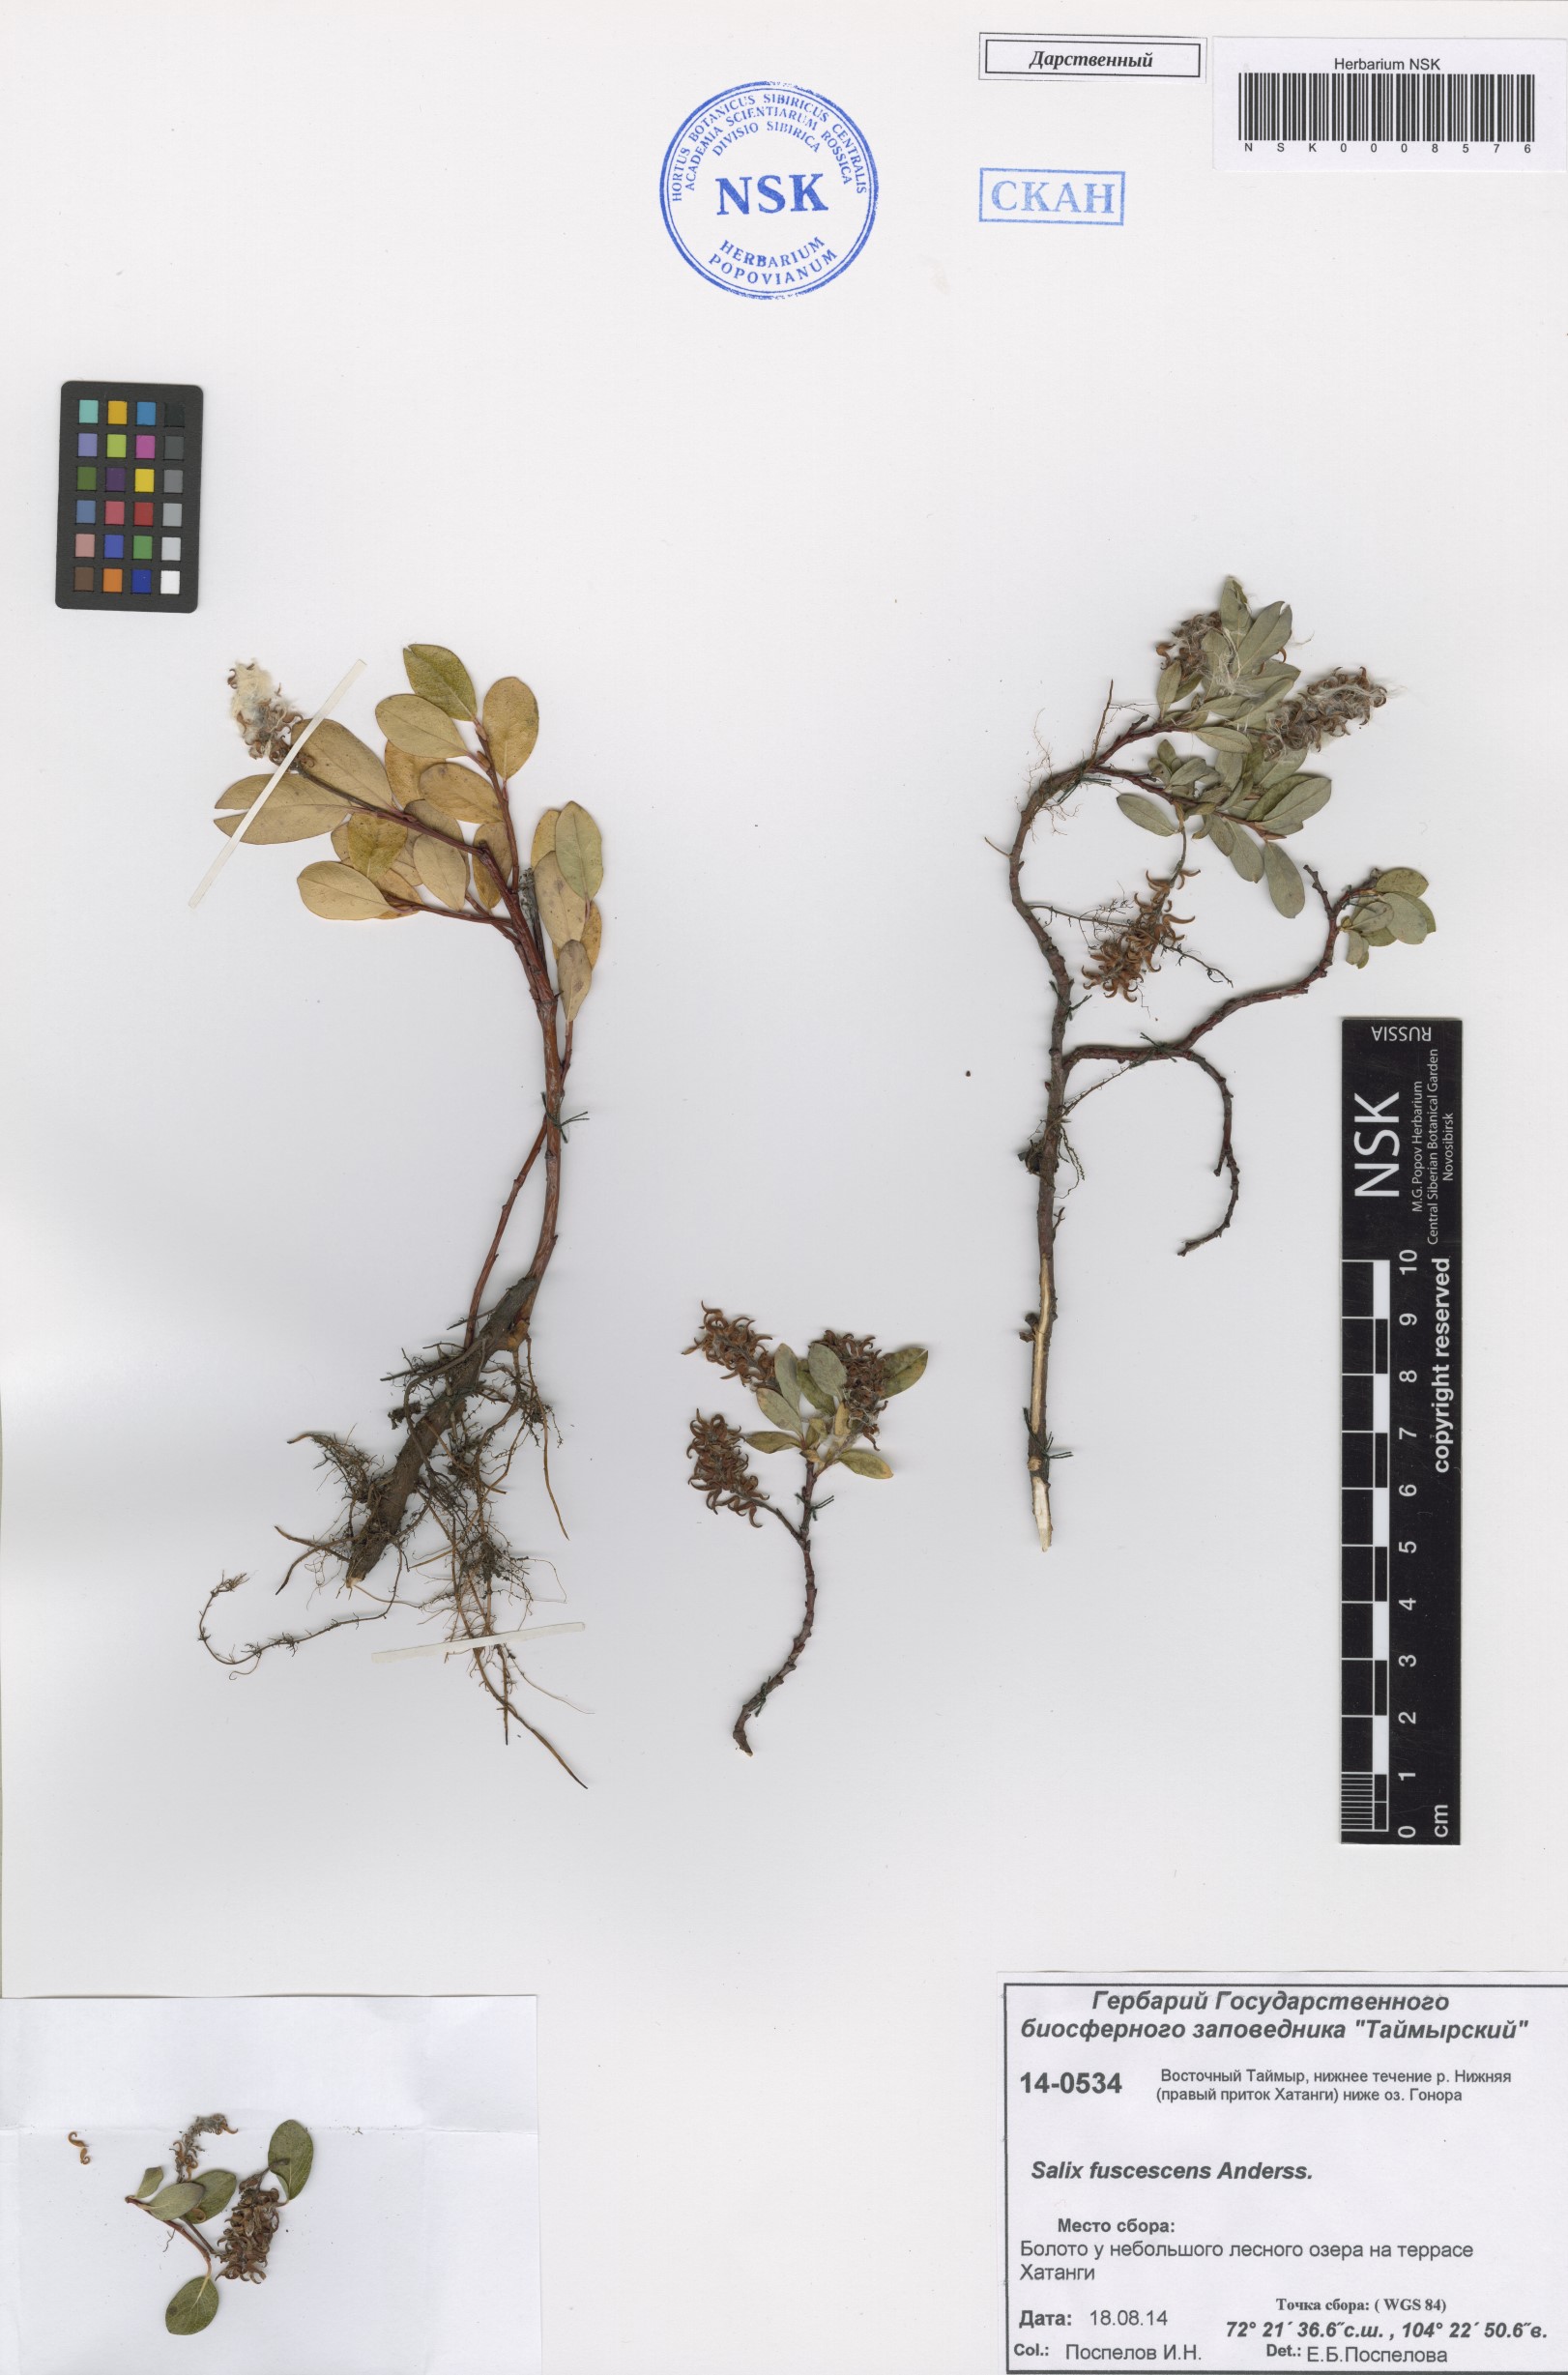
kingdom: Plantae
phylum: Tracheophyta
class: Magnoliopsida
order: Malpighiales
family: Salicaceae
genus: Salix
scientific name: Salix fuscescens
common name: Brownish willow
